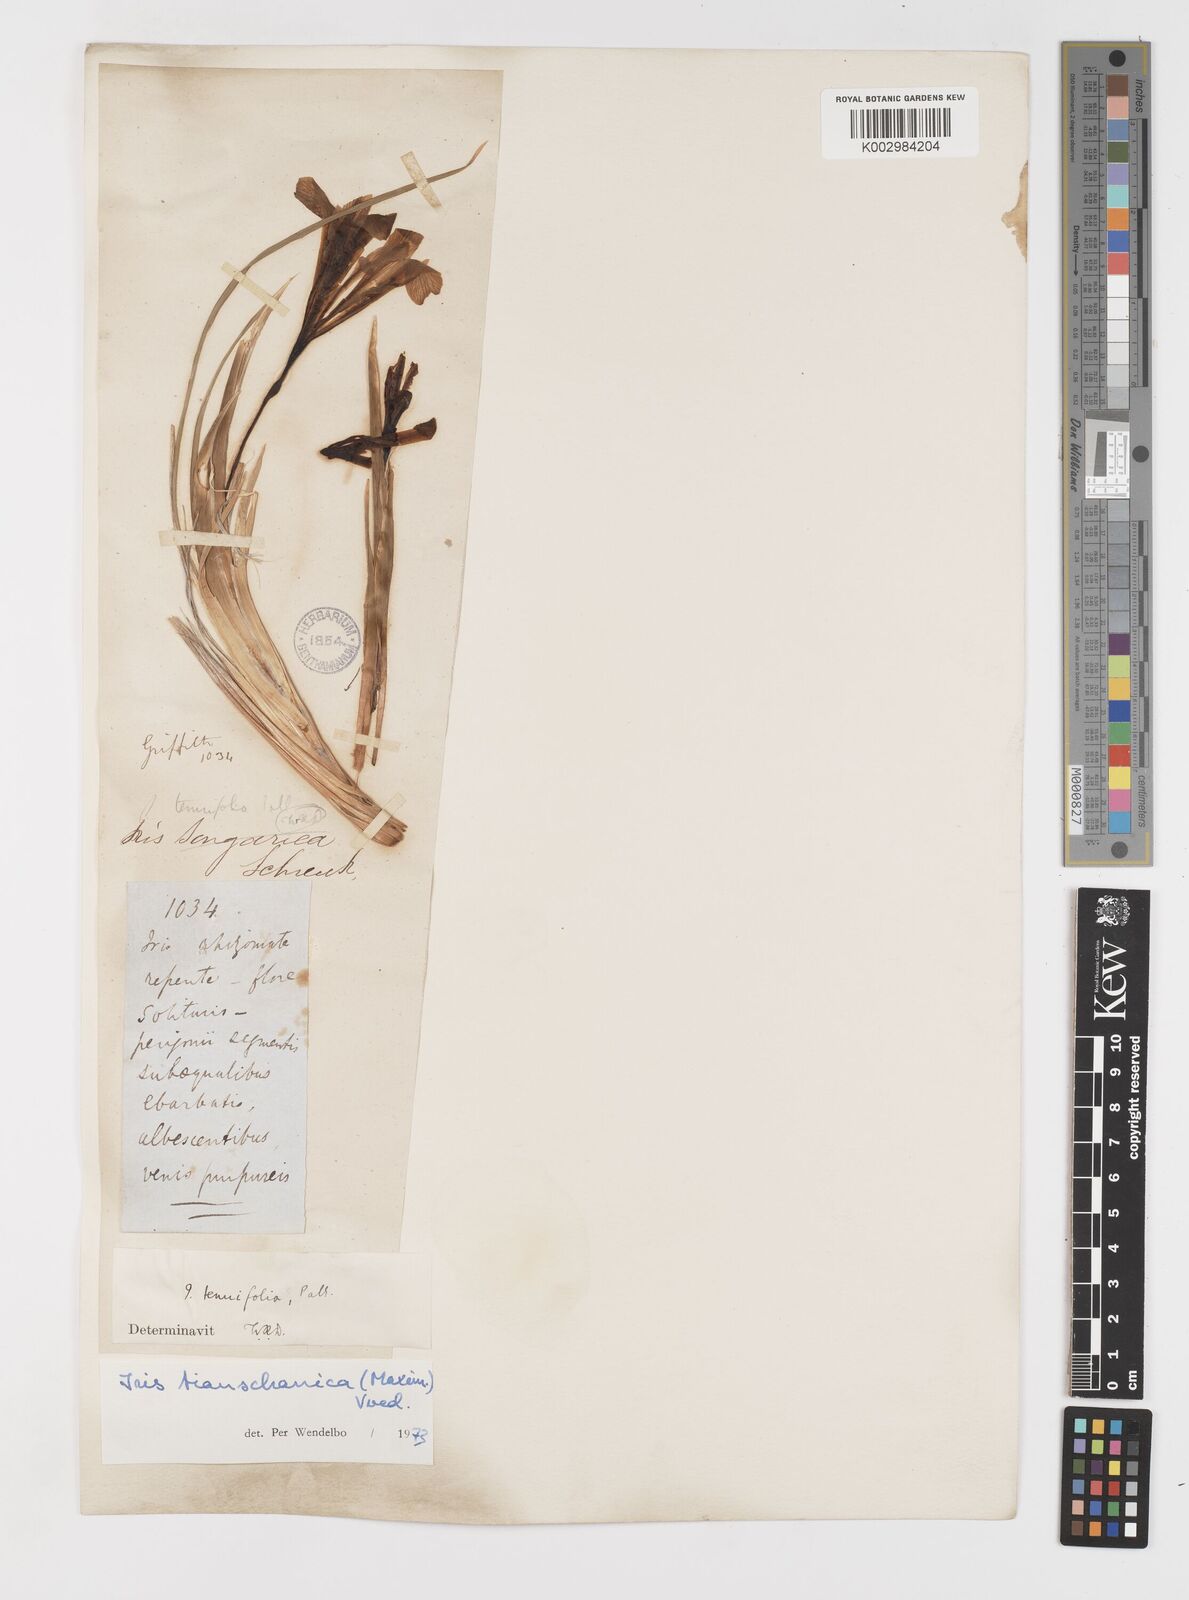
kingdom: Plantae
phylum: Tracheophyta
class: Liliopsida
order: Asparagales
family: Iridaceae
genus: Iris
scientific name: Iris loczyi
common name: Tian shan mountain iris
